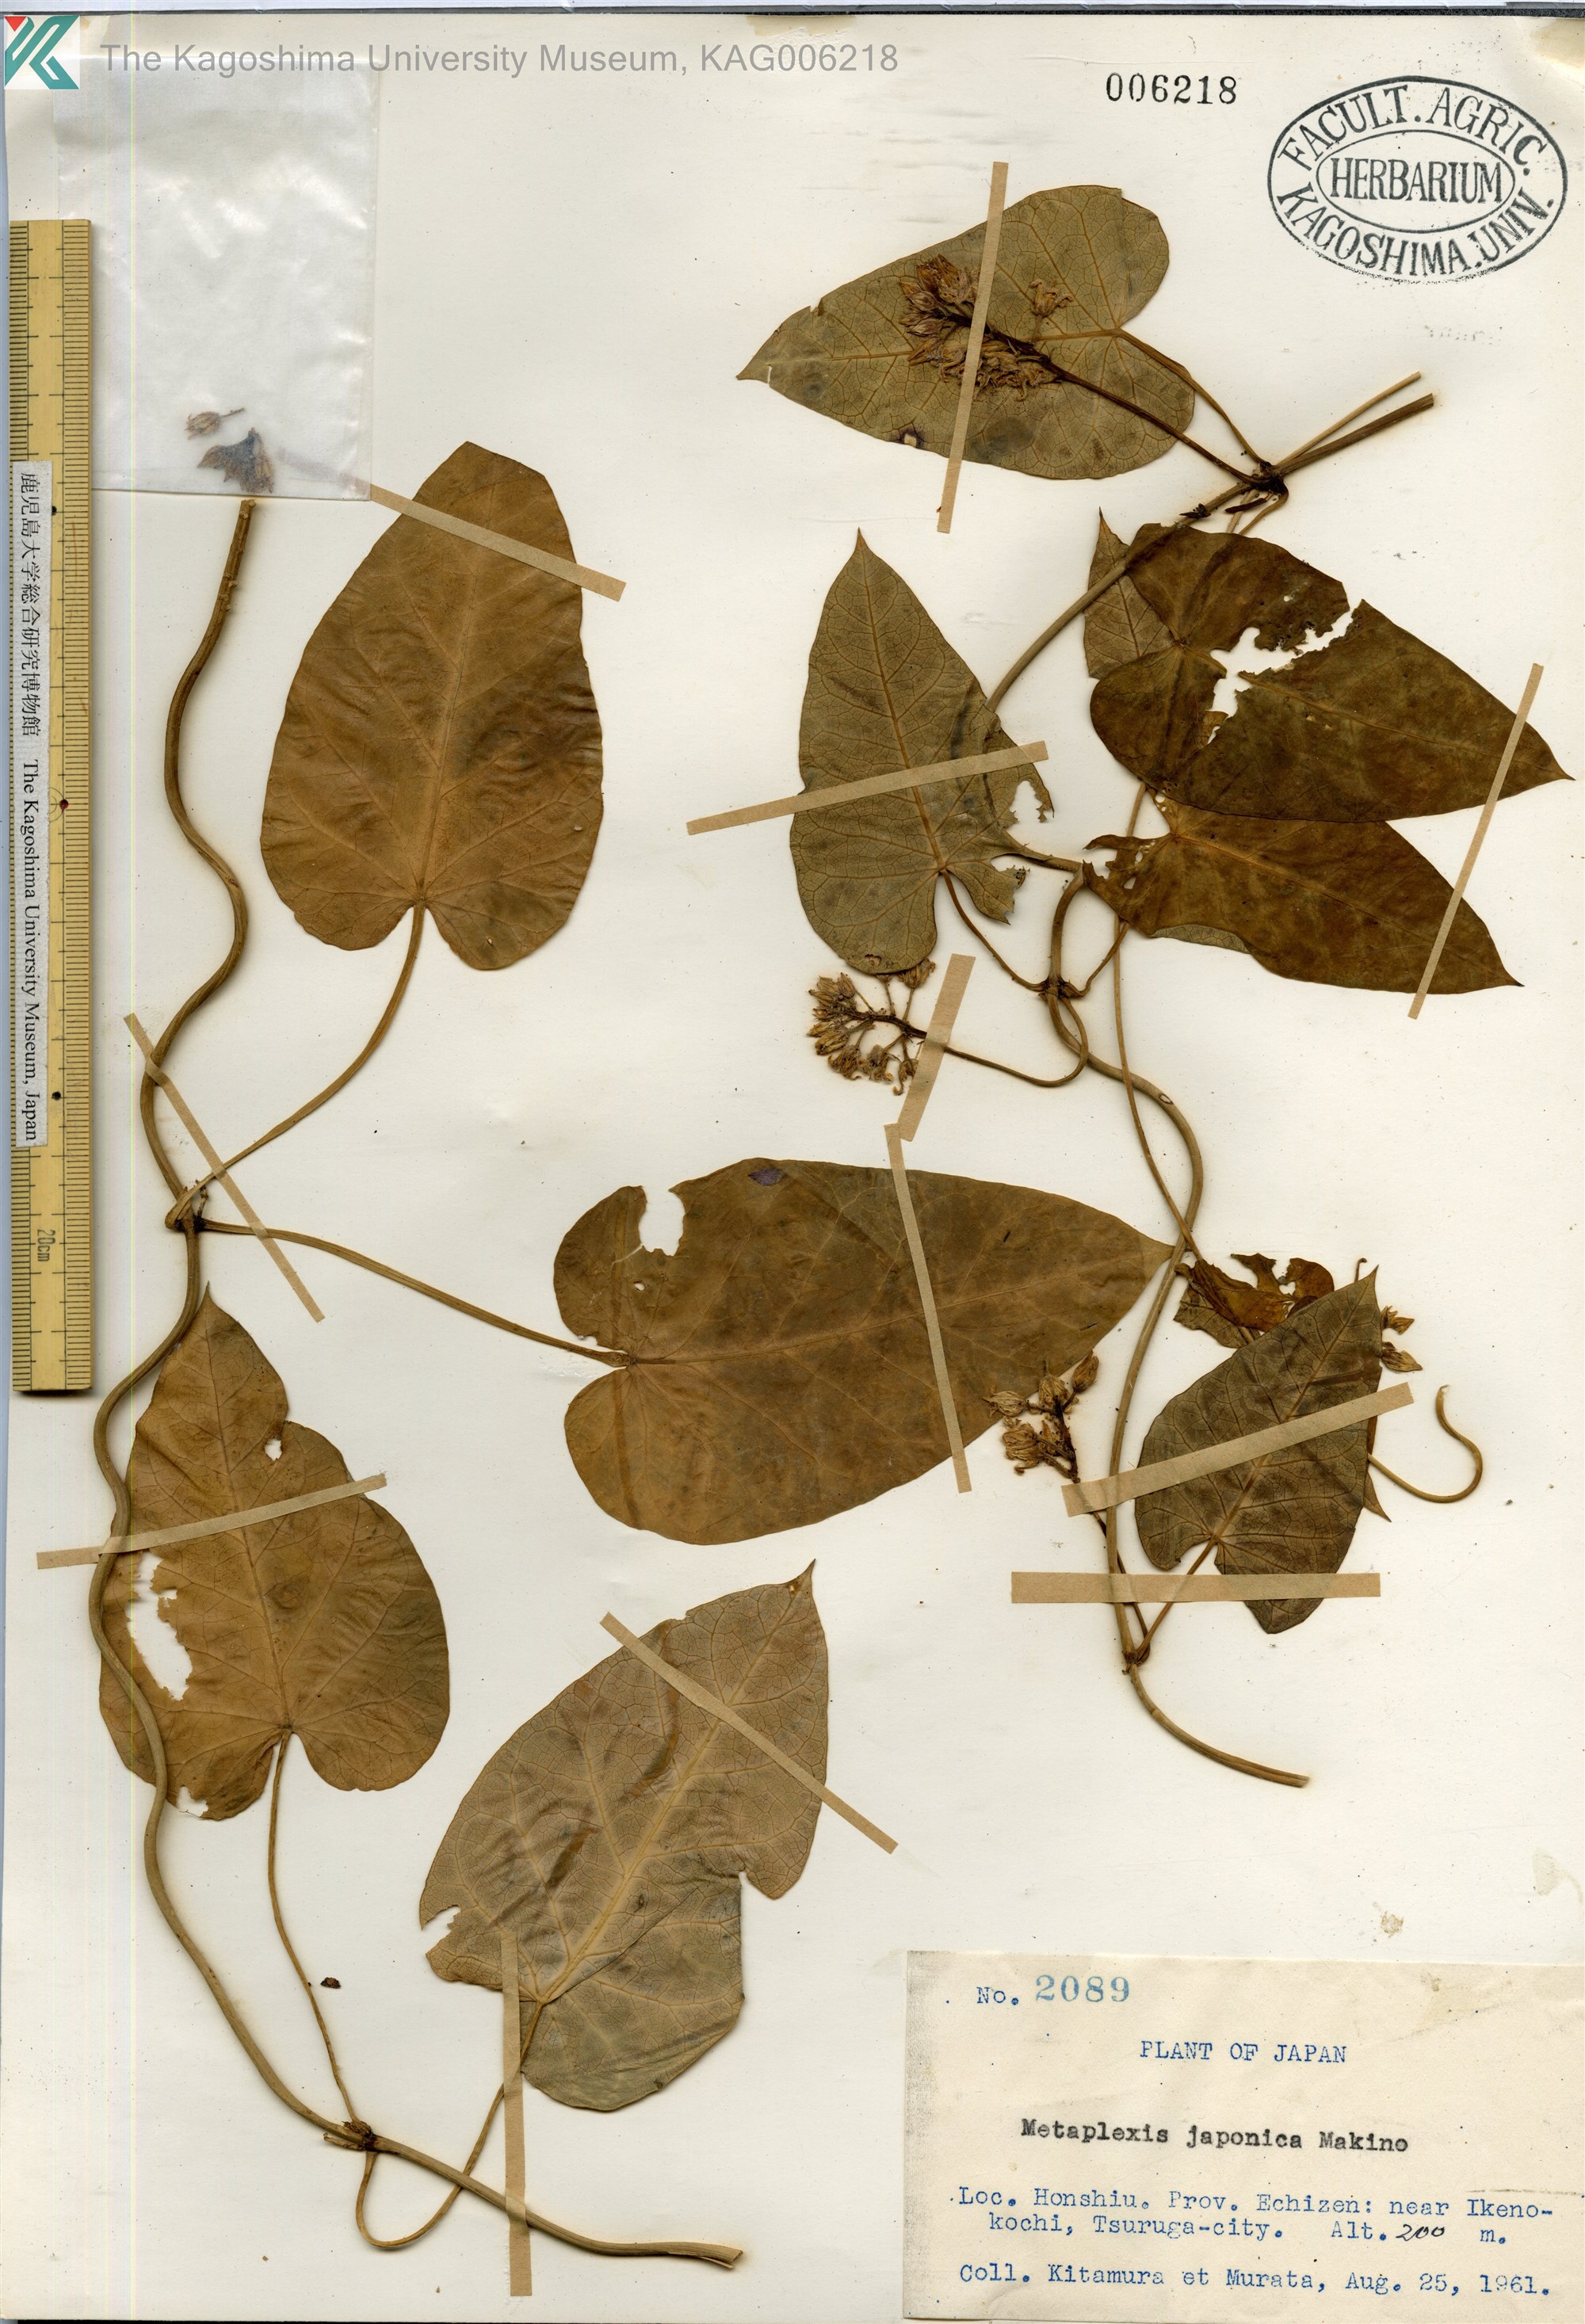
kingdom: Plantae
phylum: Tracheophyta
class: Magnoliopsida
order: Gentianales
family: Apocynaceae
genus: Cynanchum
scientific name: Cynanchum rostellatum
